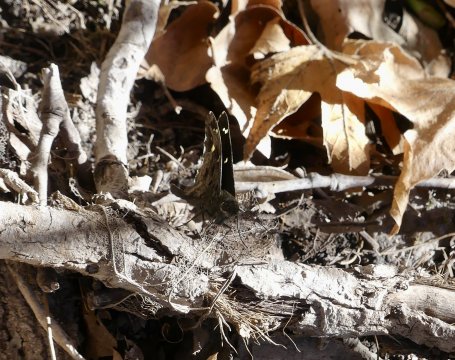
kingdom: Animalia
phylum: Arthropoda
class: Insecta
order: Lepidoptera
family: Hesperiidae
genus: Urbanus
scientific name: Urbanus dorantes
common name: Dorantes Longtail
